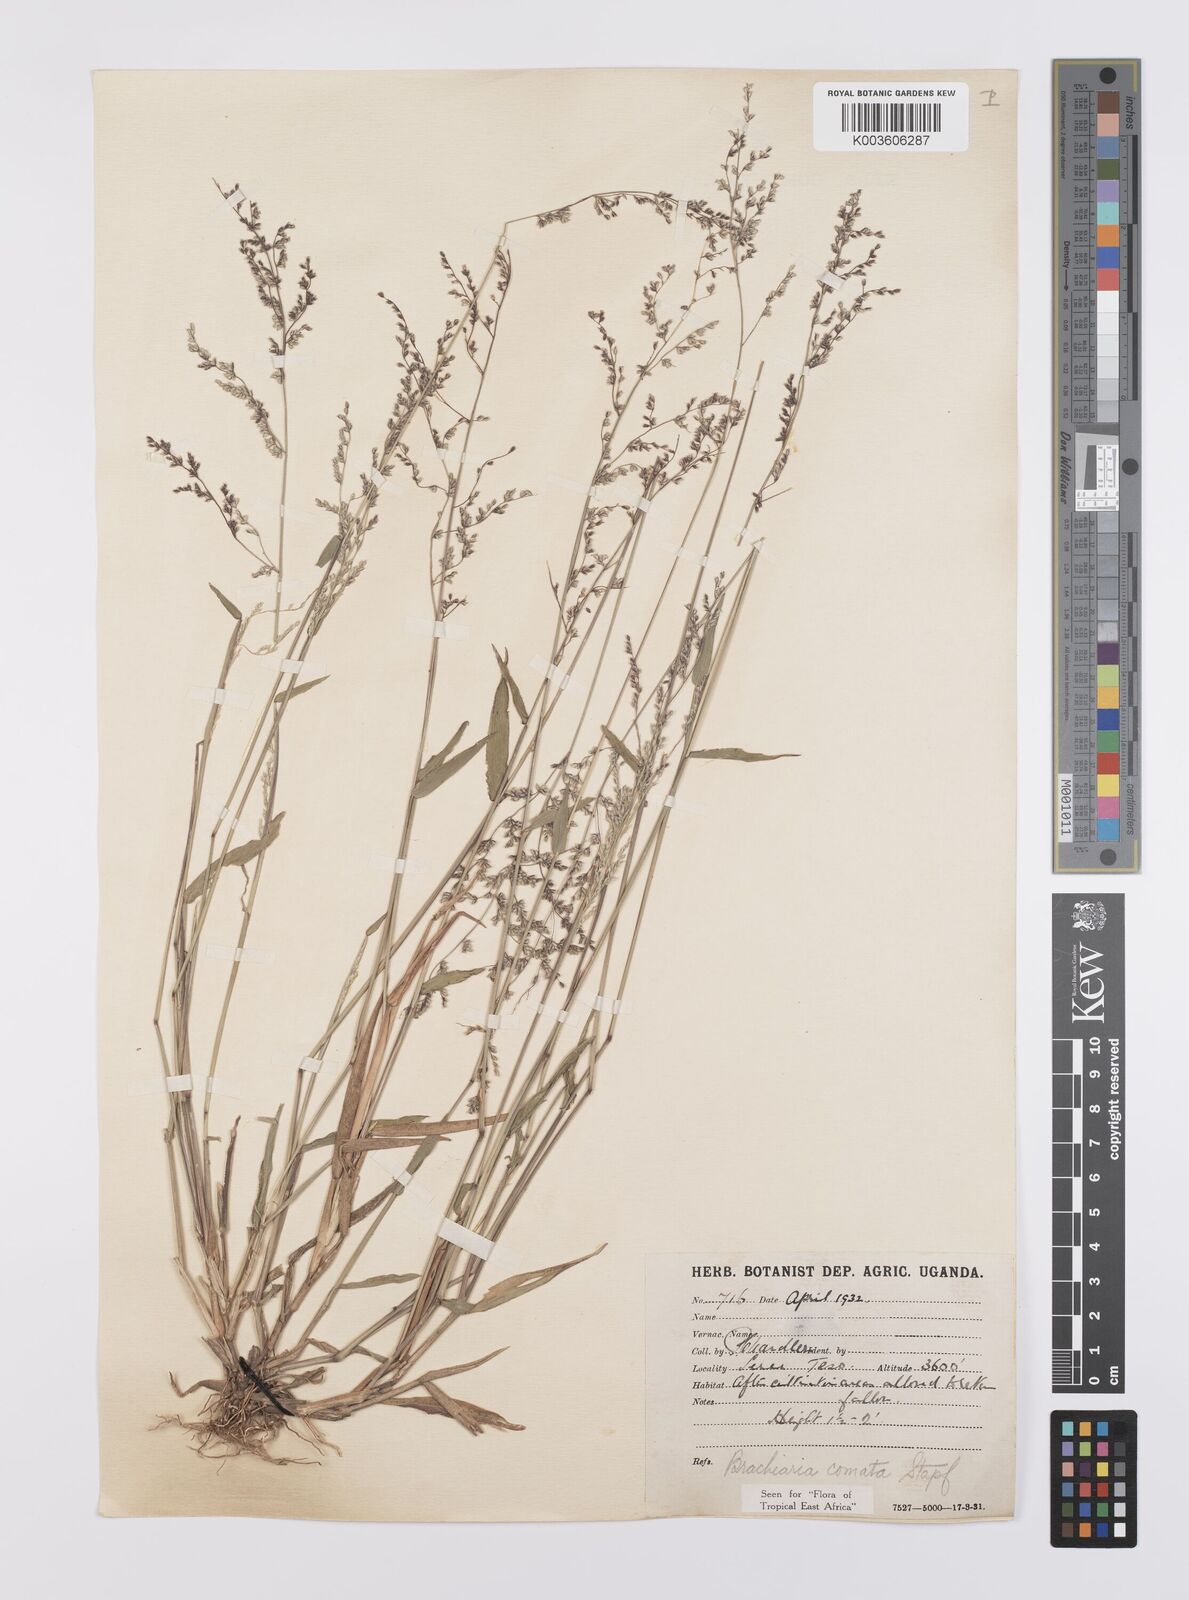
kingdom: Plantae
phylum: Tracheophyta
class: Liliopsida
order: Poales
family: Poaceae
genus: Urochloa
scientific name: Urochloa comata
